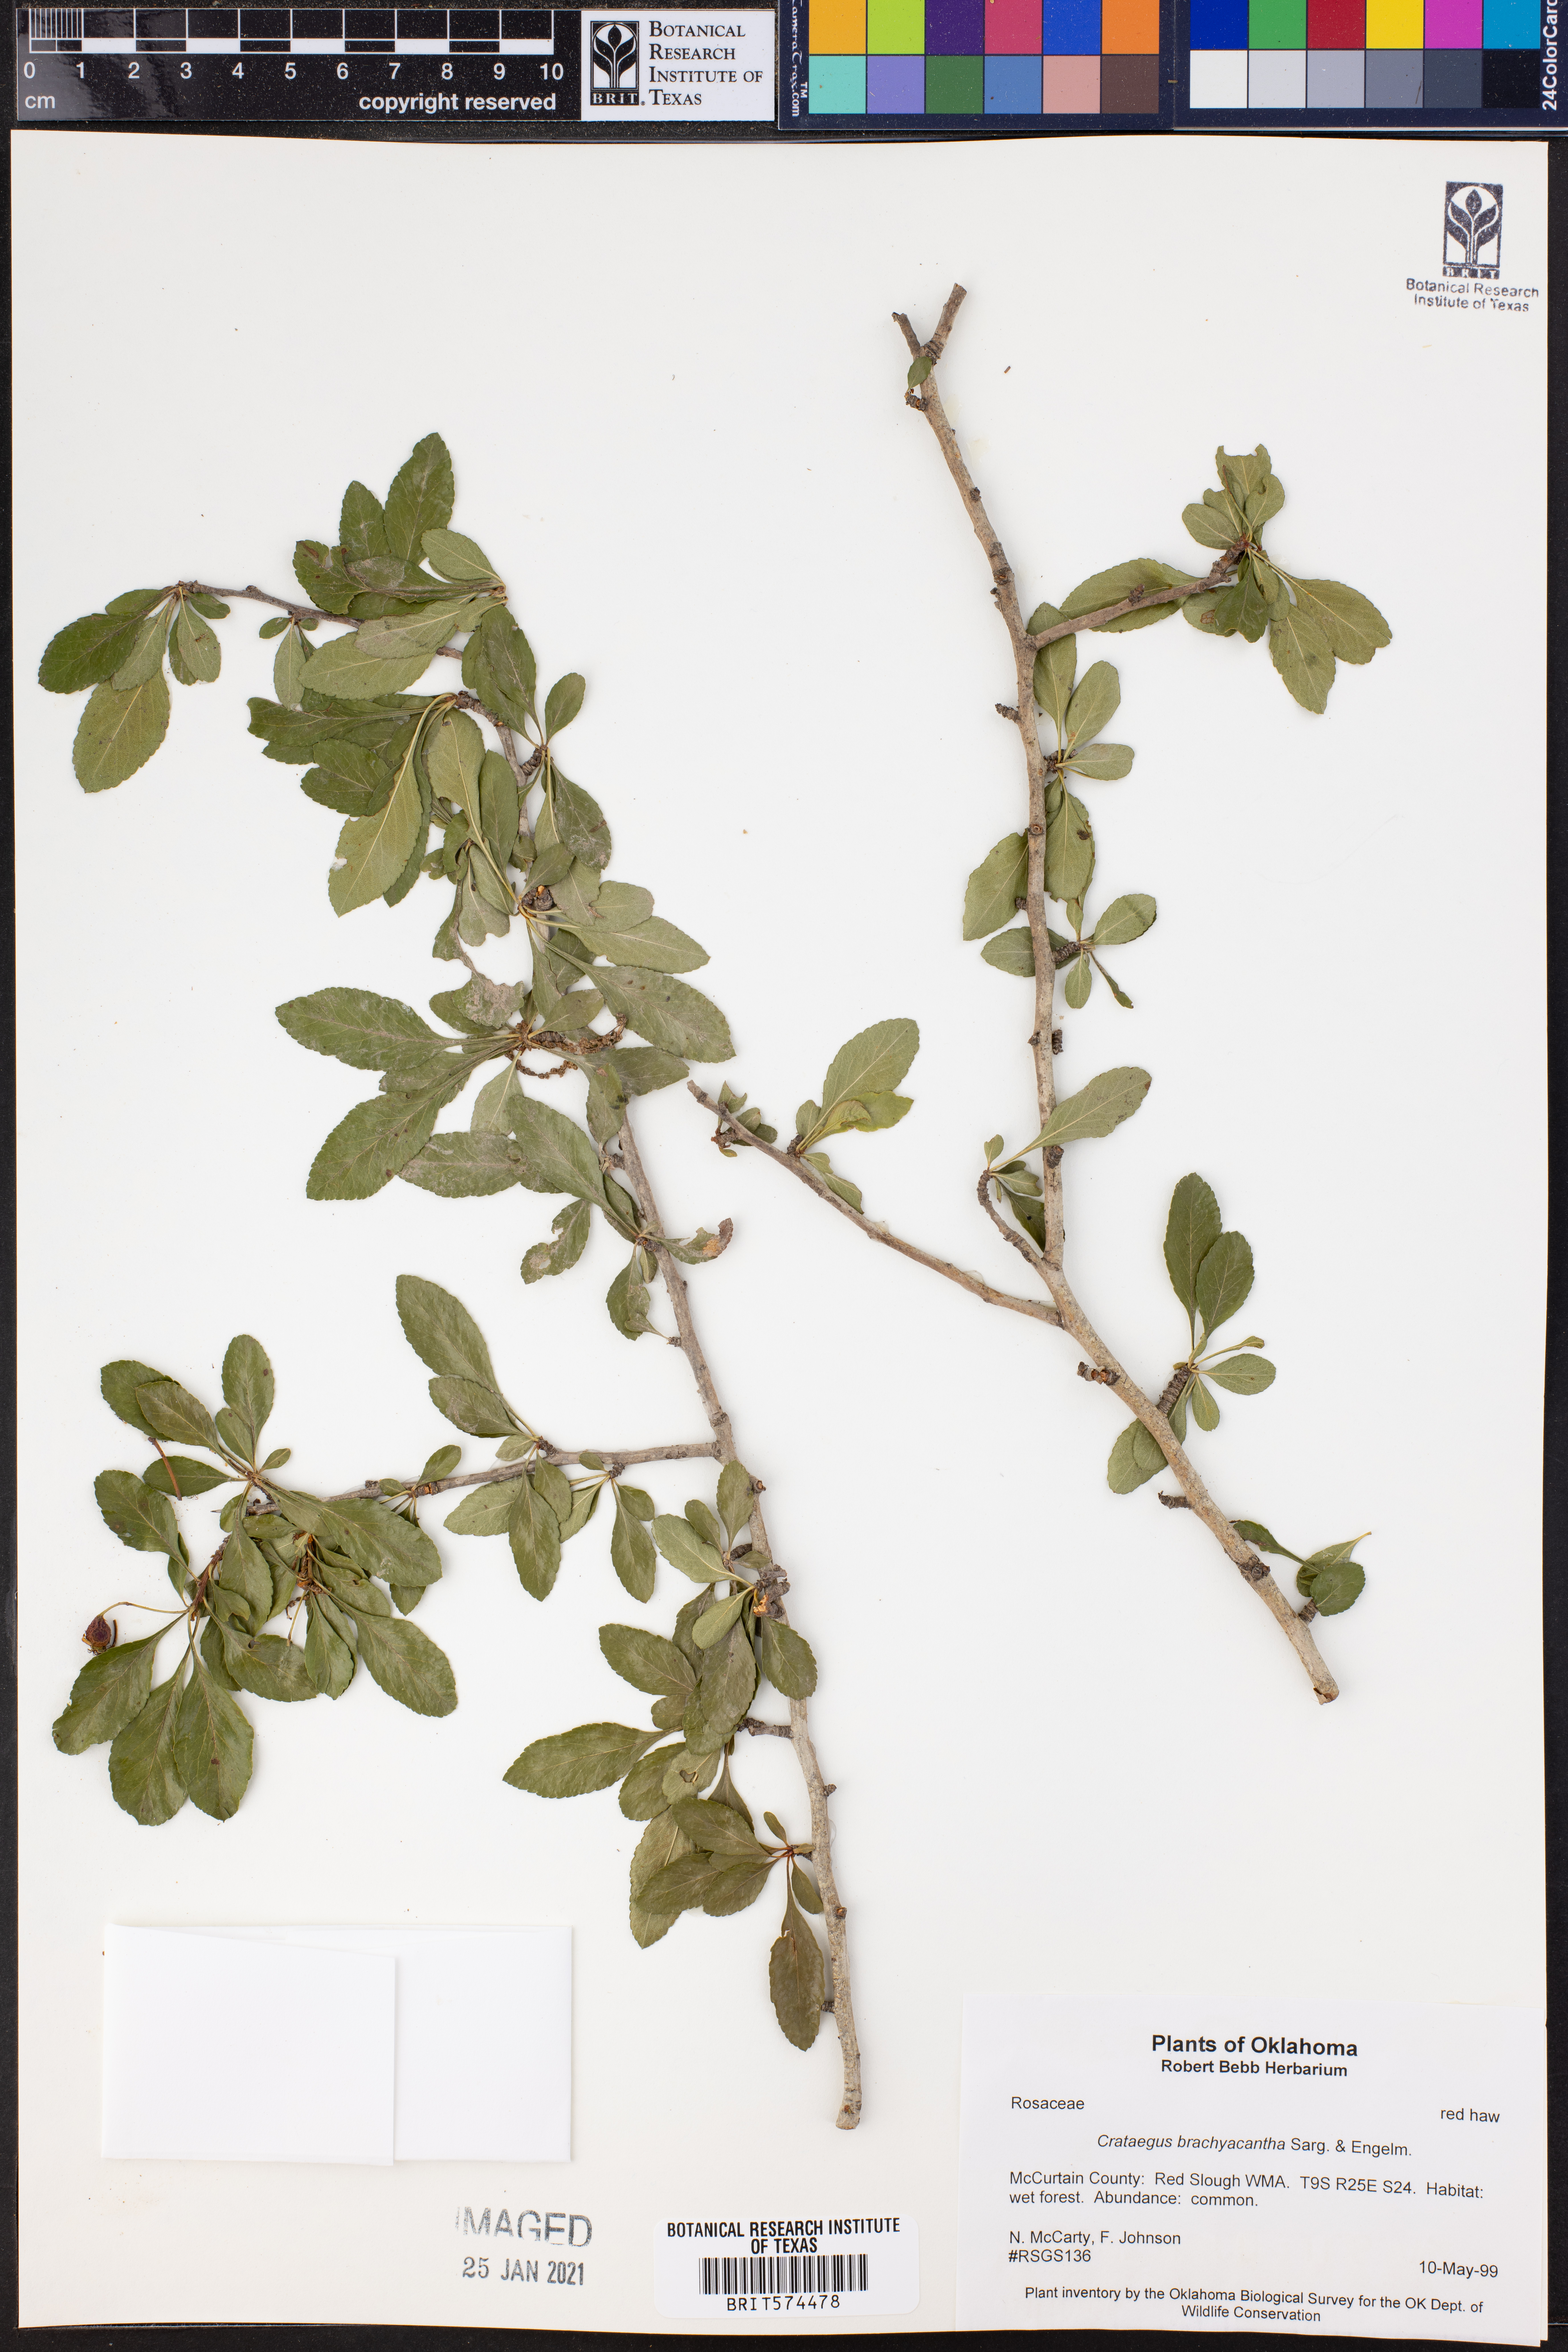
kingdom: Plantae
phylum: Tracheophyta
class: Magnoliopsida
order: Rosales
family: Rosaceae
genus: Crataegus
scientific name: Crataegus brachyacantha
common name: Blueberry-hawthorn
